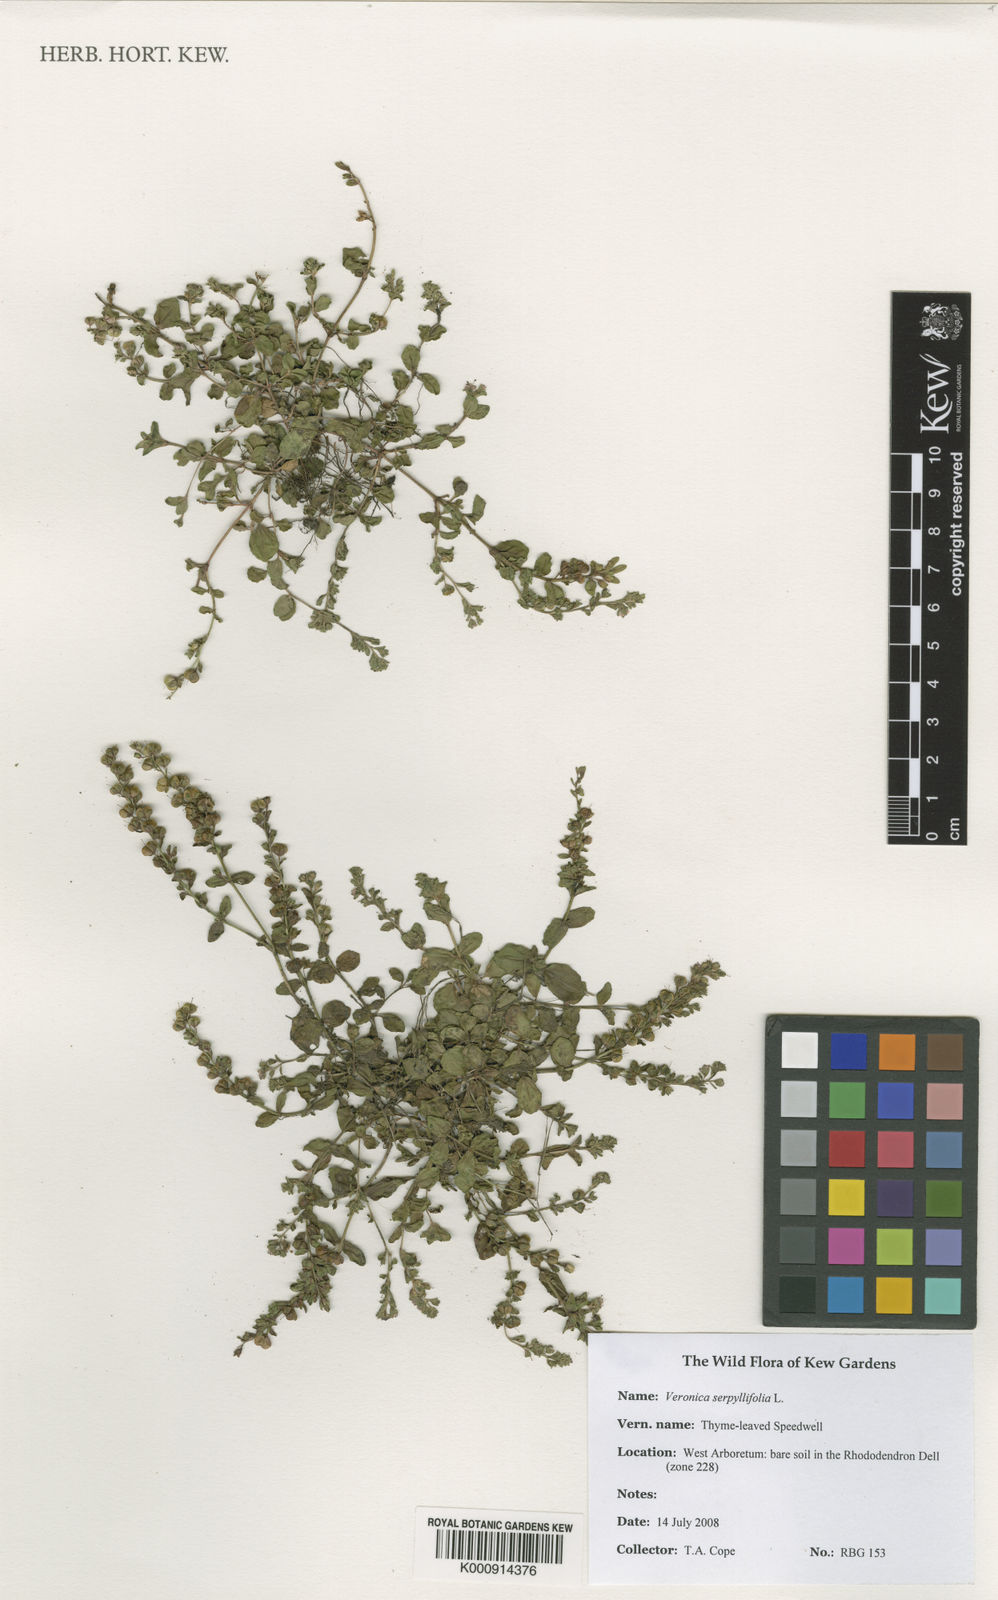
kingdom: Plantae
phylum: Tracheophyta
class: Magnoliopsida
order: Lamiales
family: Plantaginaceae
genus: Veronica
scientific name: Veronica serpyllifolia
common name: Thyme-leaved speedwell
